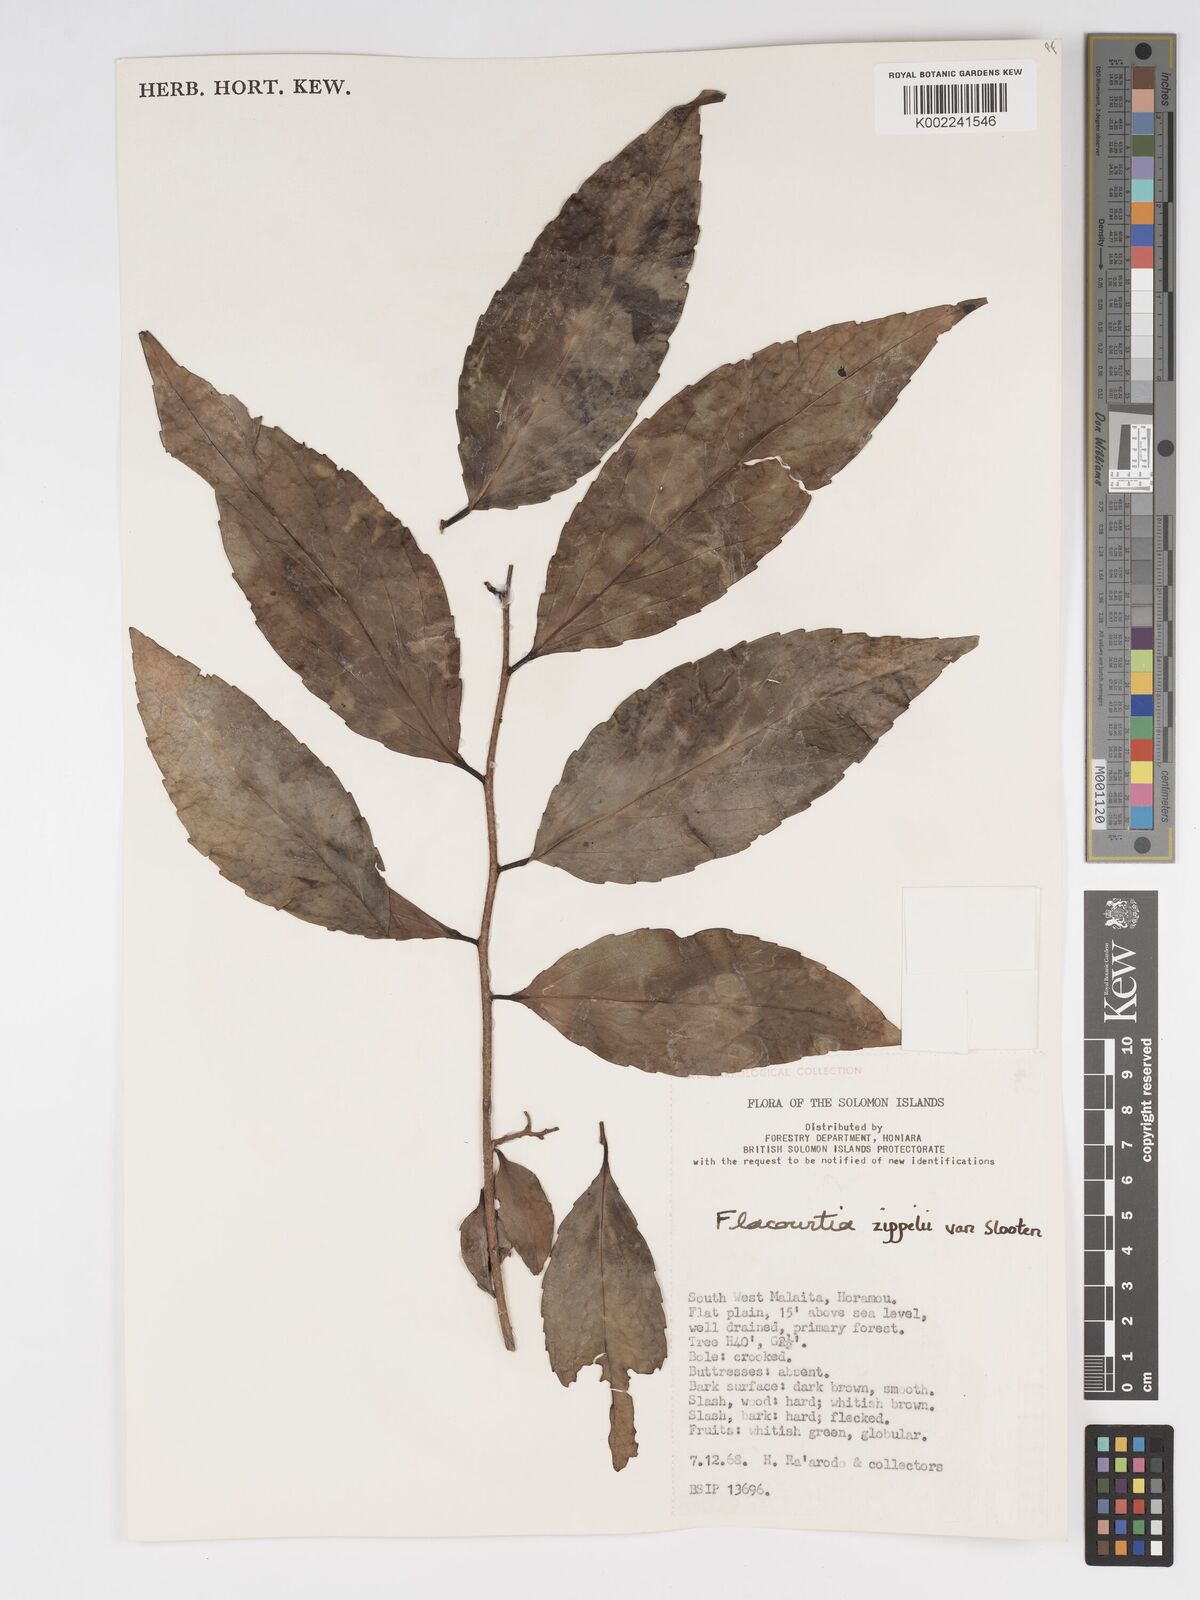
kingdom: Plantae
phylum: Tracheophyta
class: Magnoliopsida
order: Malpighiales
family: Salicaceae
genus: Flacourtia
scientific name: Flacourtia zippelii
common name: Zippeli plum
